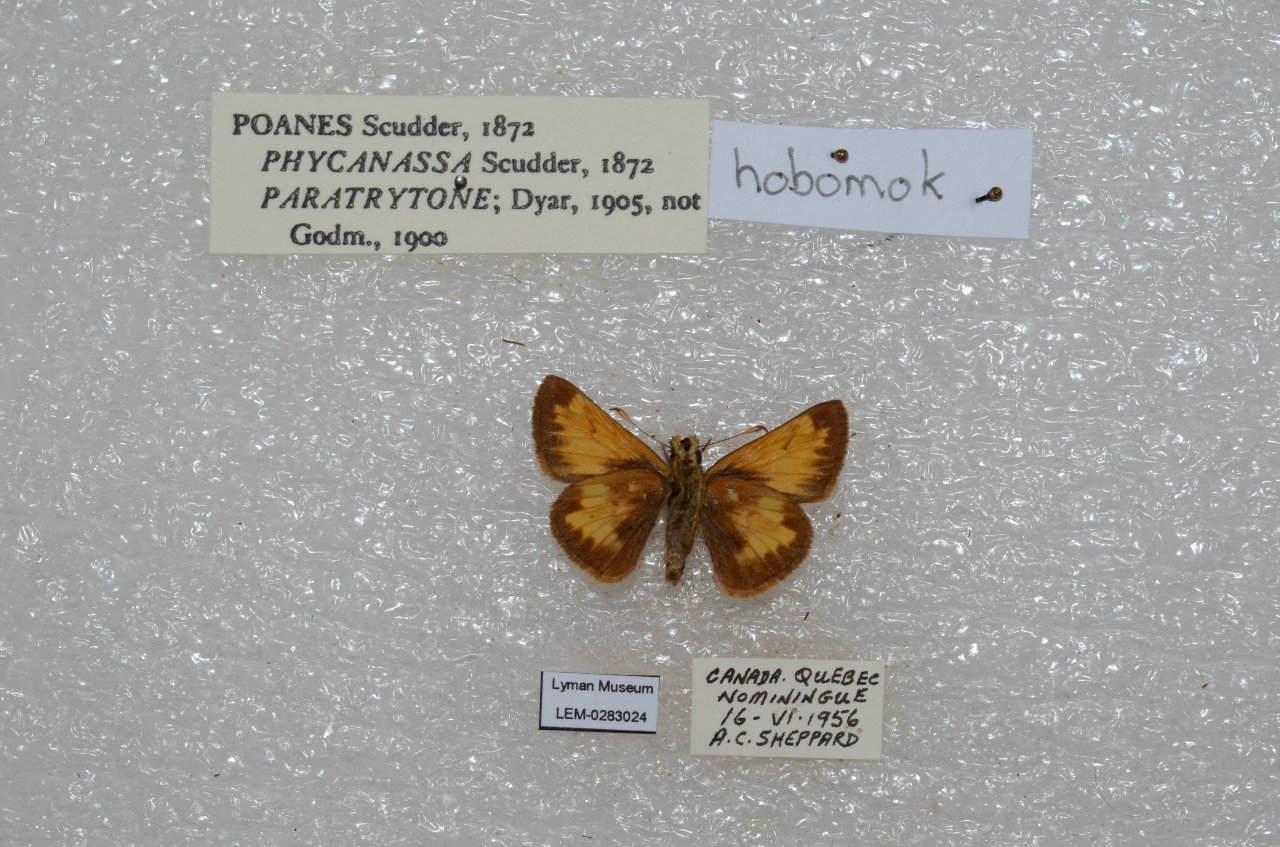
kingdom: Animalia
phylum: Arthropoda
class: Insecta
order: Lepidoptera
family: Hesperiidae
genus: Lon
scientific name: Lon hobomok
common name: Hobomok Skipper
